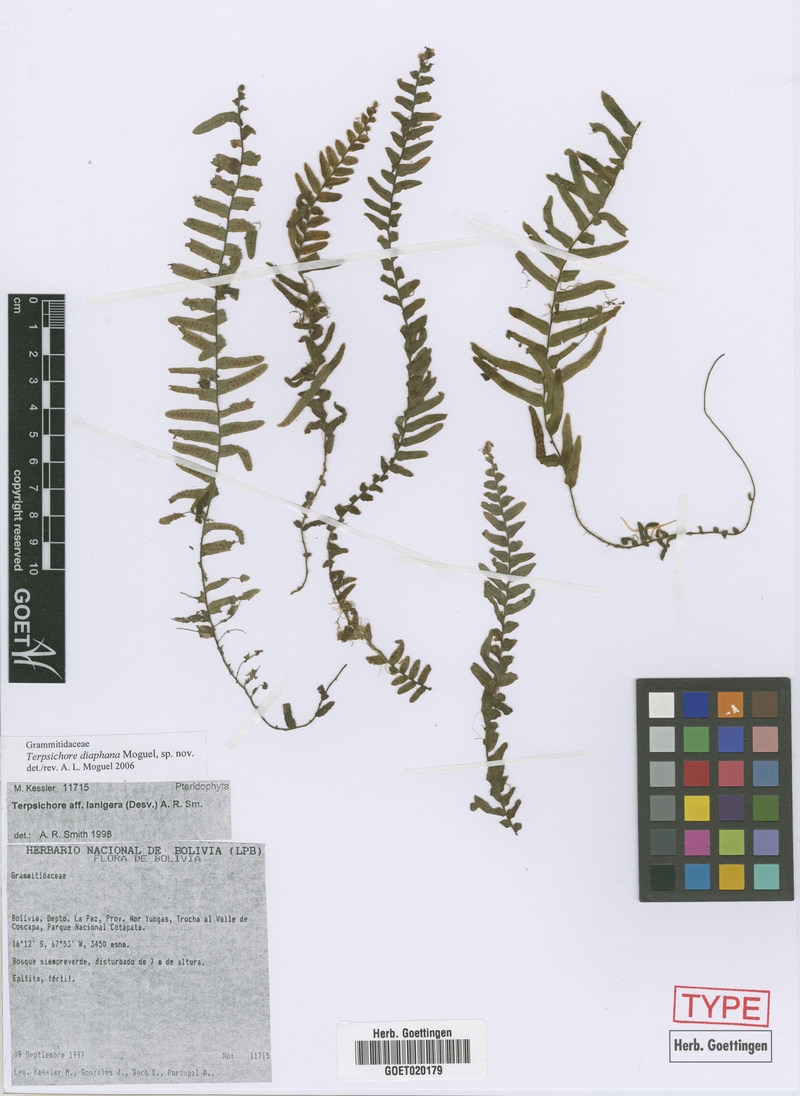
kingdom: Plantae
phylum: Tracheophyta
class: Polypodiopsida
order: Polypodiales
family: Polypodiaceae
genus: Alansmia
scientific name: Alansmia diaphana
